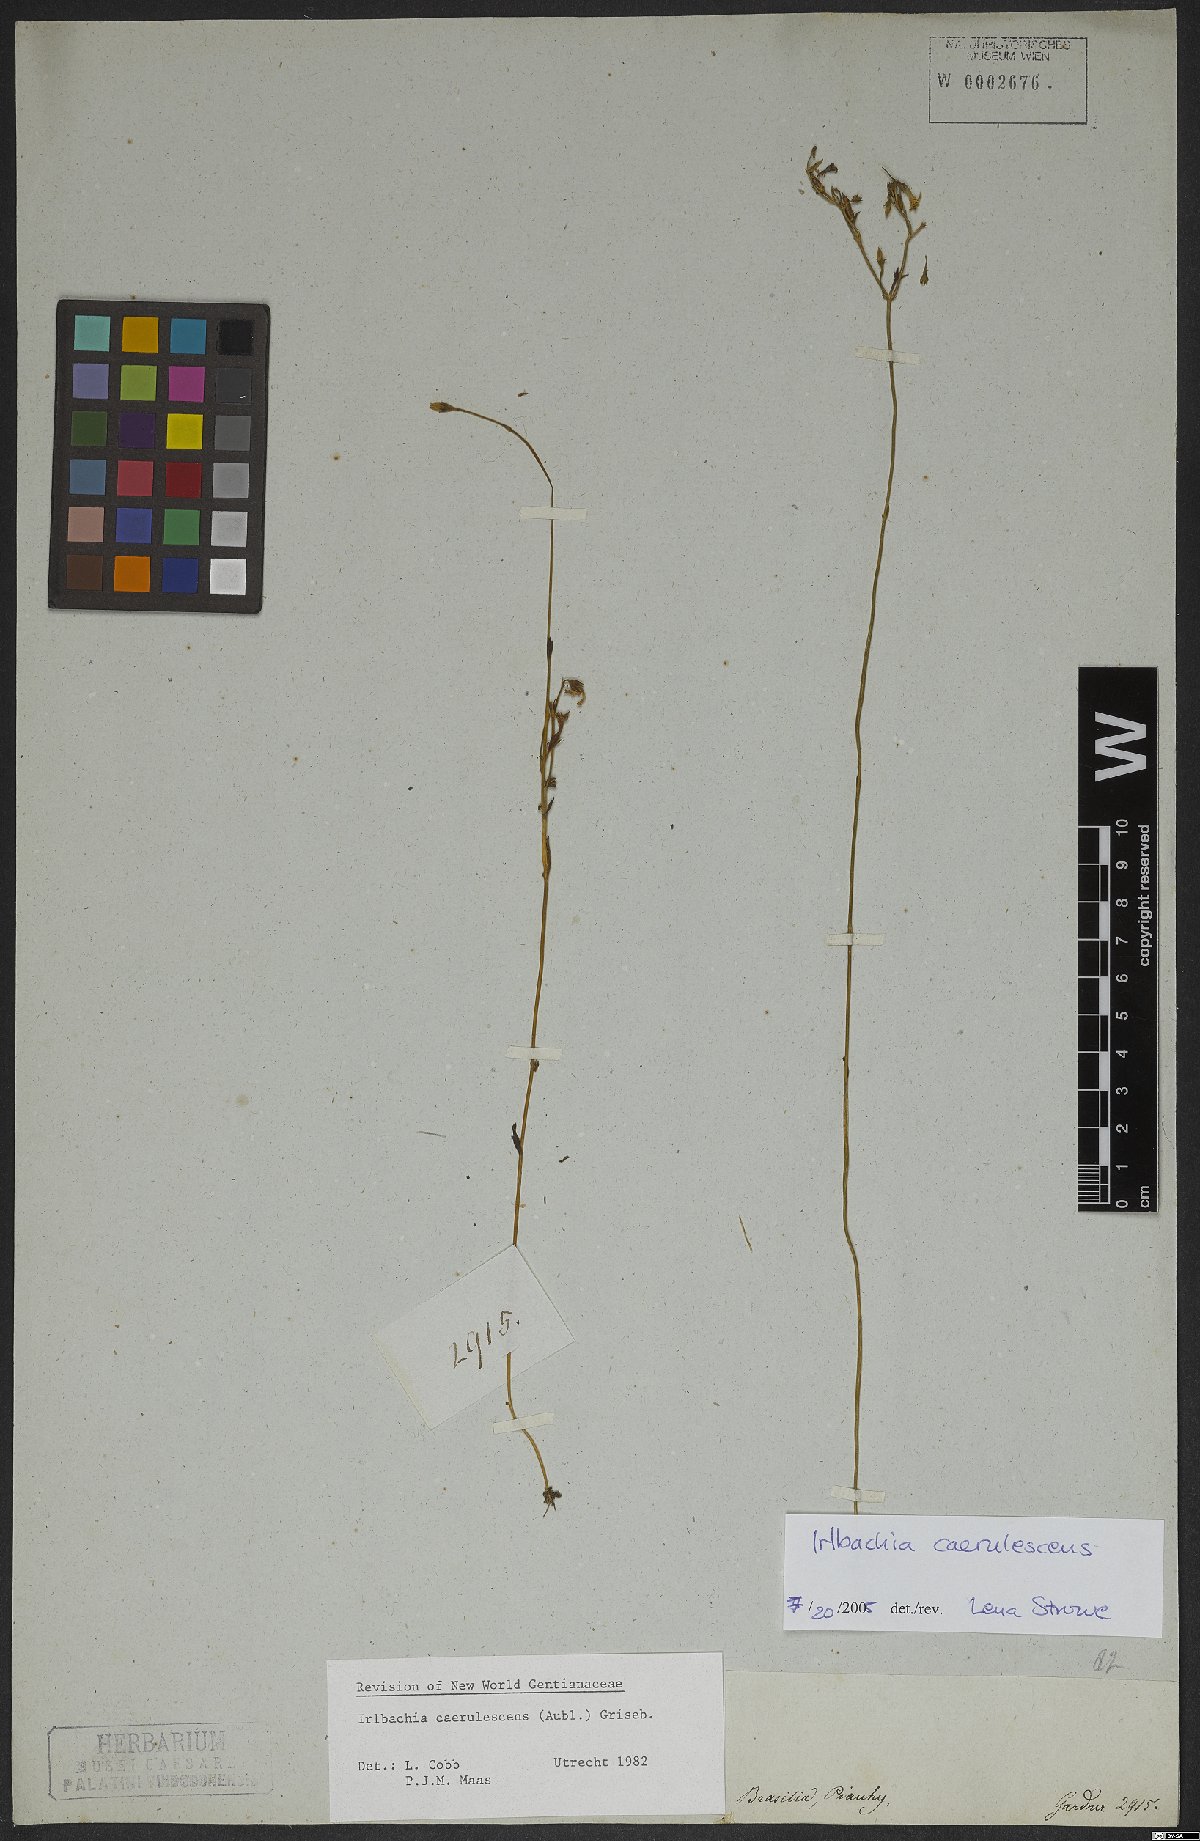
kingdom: Plantae
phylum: Tracheophyta
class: Magnoliopsida
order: Gentianales
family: Gentianaceae
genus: Tetrapollinia
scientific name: Tetrapollinia caerulescens
